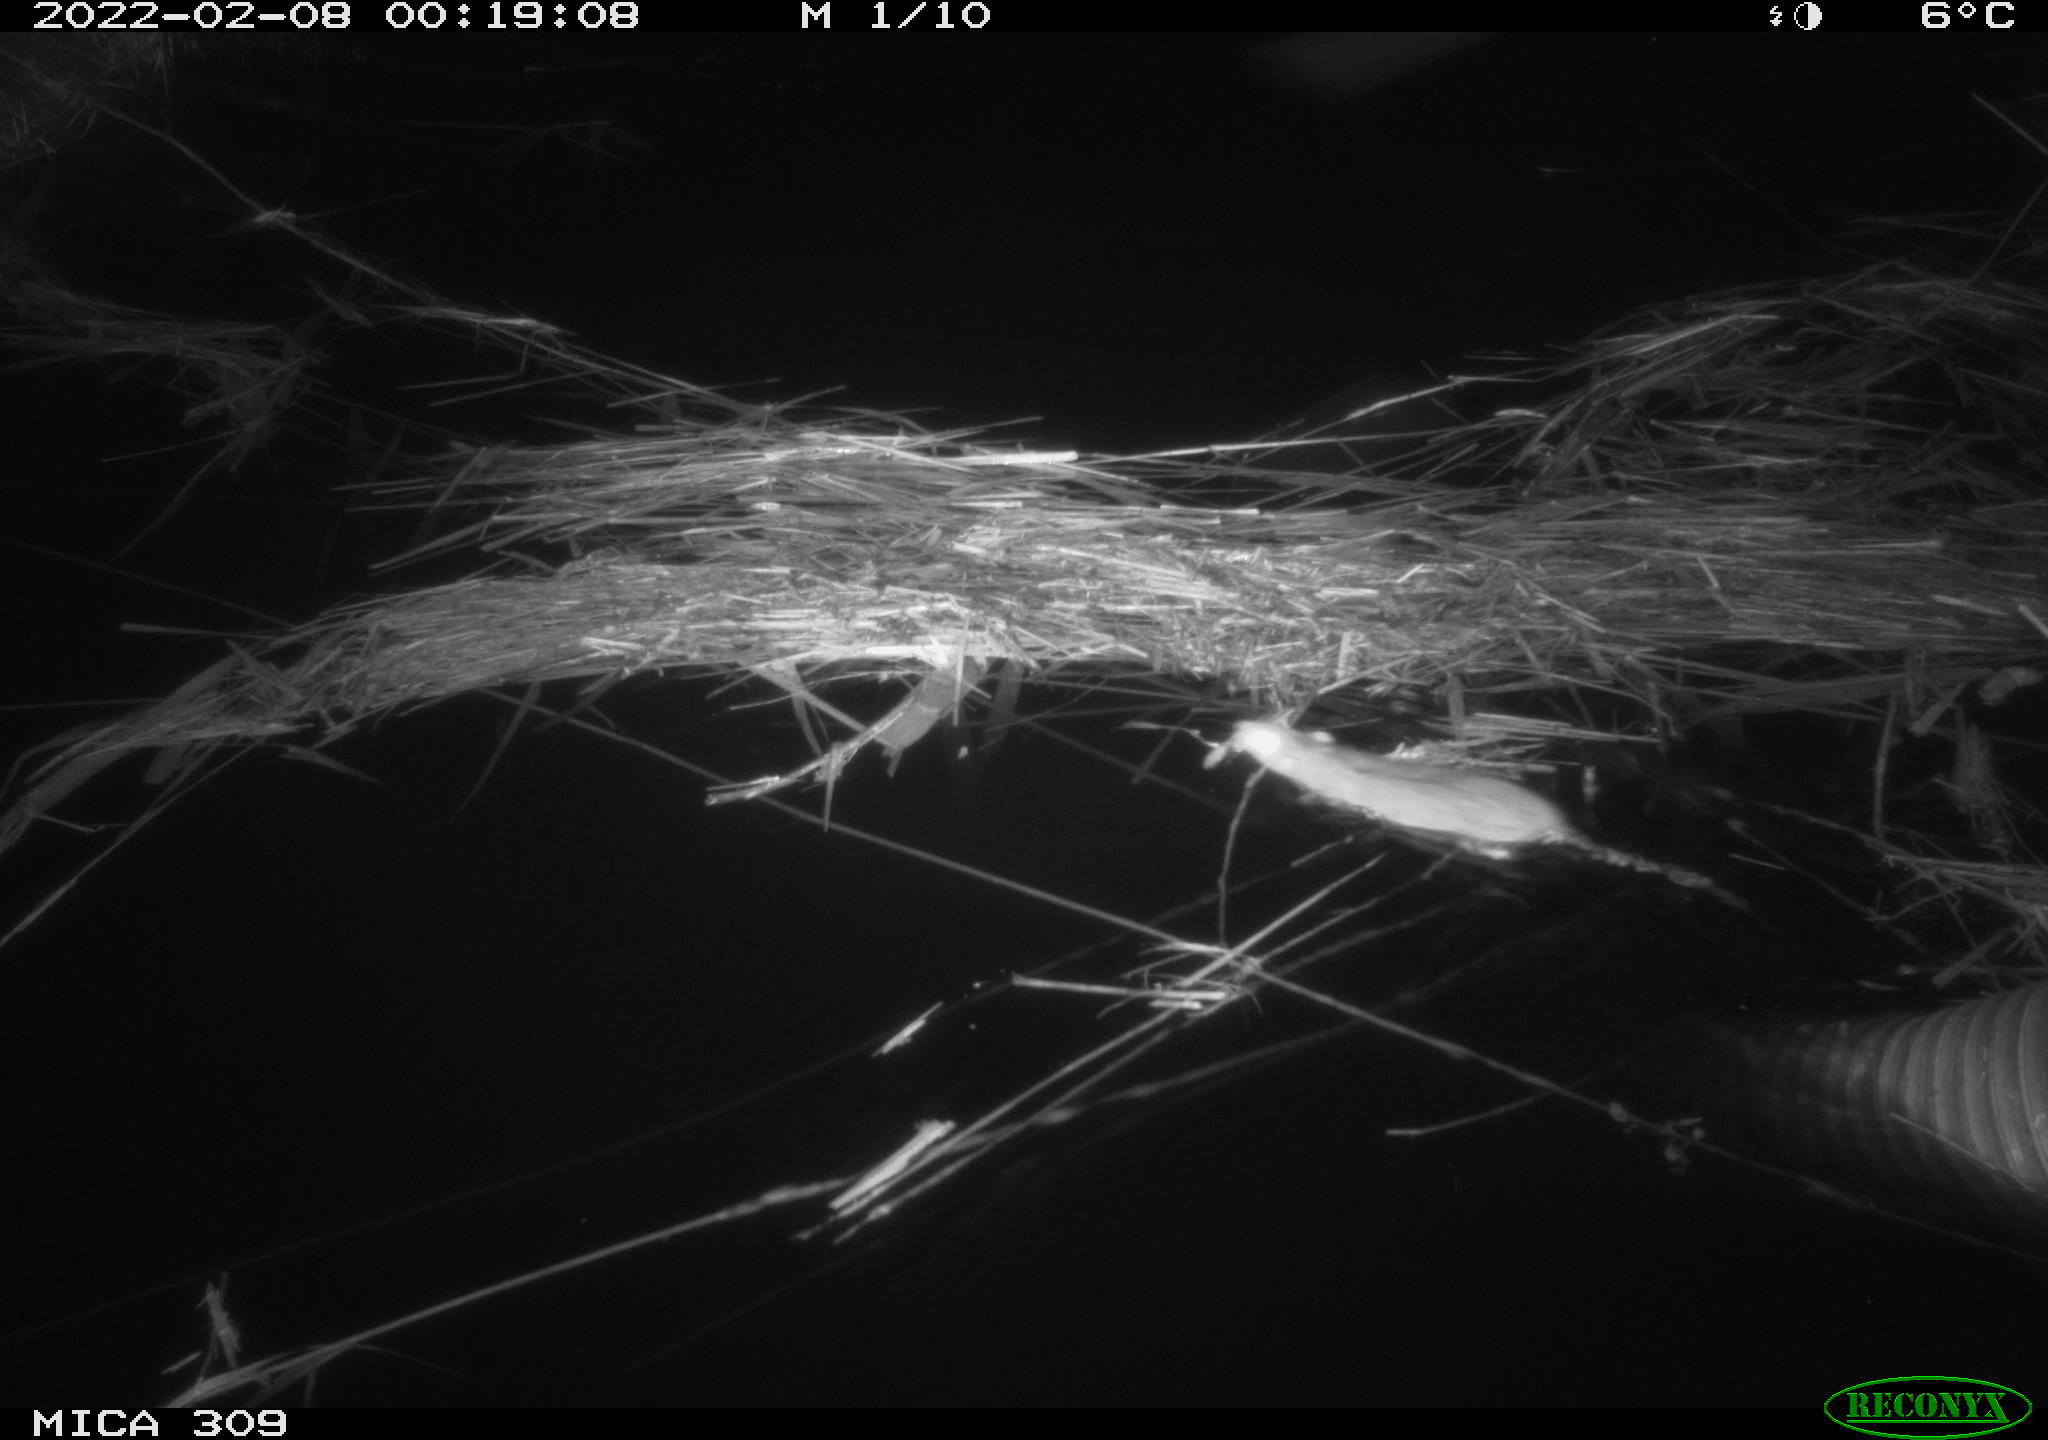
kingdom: Animalia
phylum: Chordata
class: Mammalia
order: Rodentia
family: Muridae
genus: Rattus
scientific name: Rattus norvegicus
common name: Brown rat
